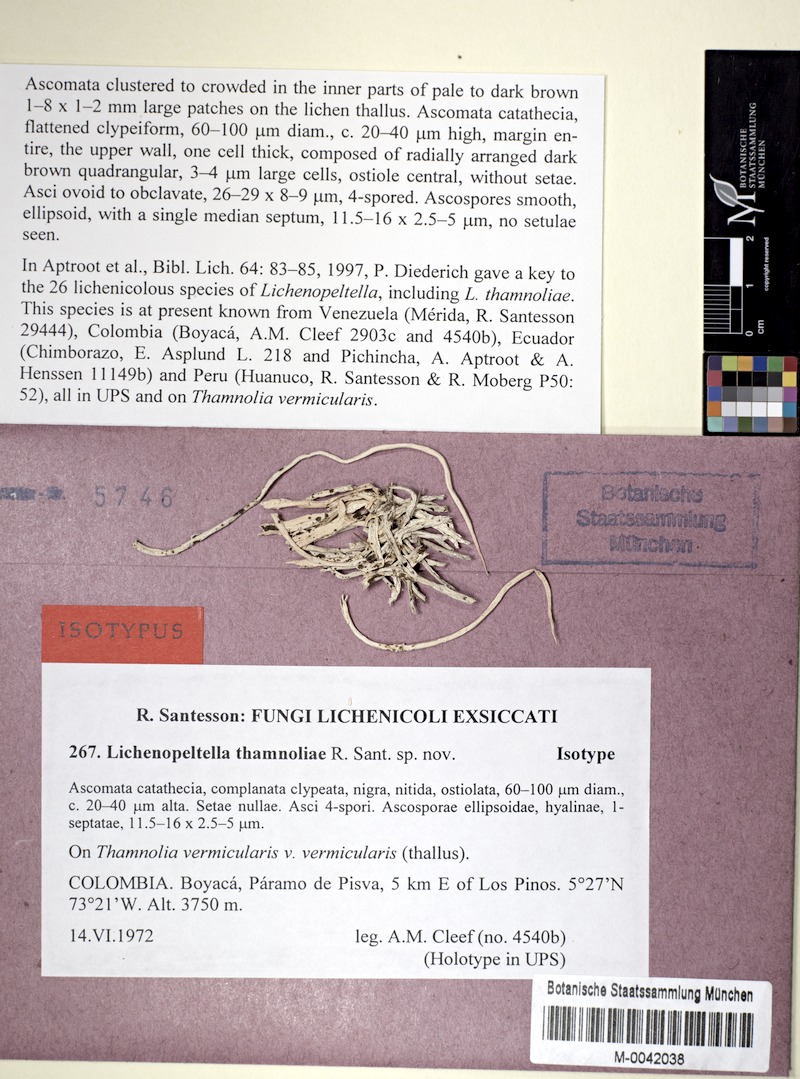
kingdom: Fungi
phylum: Ascomycota
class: Lecanoromycetes
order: Pertusariales
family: Icmadophilaceae
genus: Thamnolia
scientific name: Thamnolia vermicularis
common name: Whiteworm lichen
